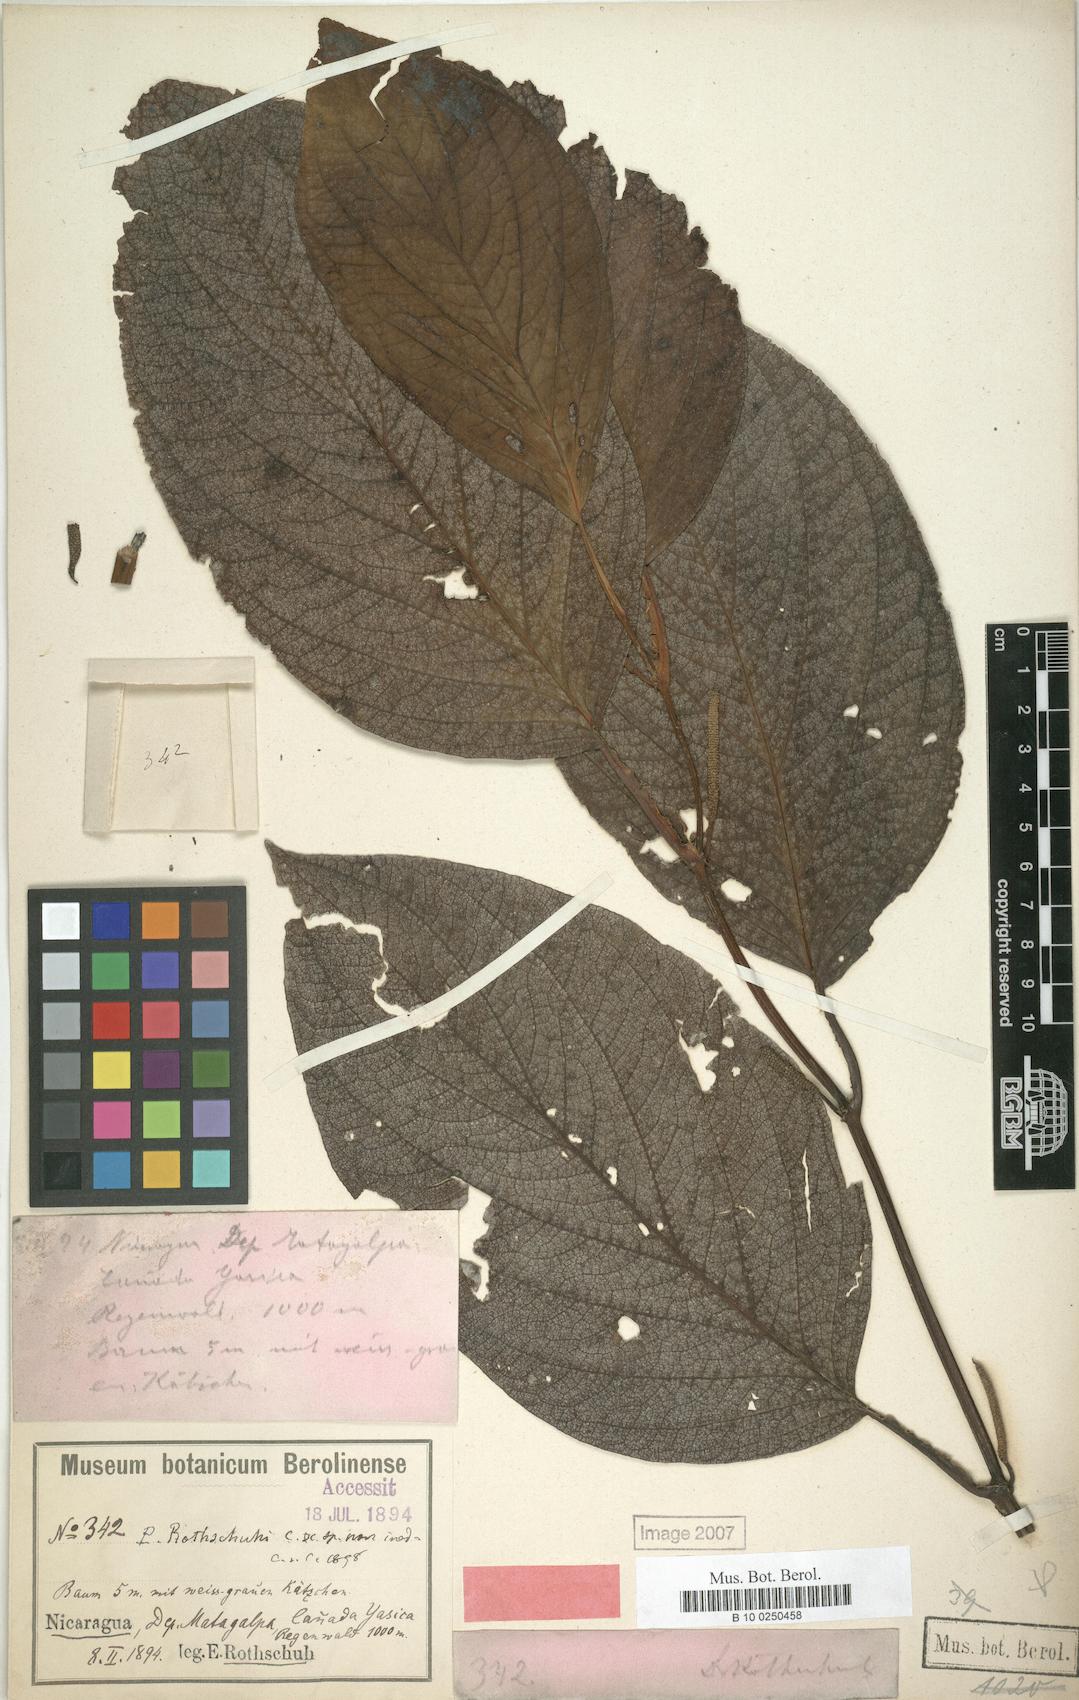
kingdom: Plantae
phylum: Tracheophyta
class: Magnoliopsida
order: Piperales
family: Piperaceae
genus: Piper
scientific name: Piper rothschuhii
